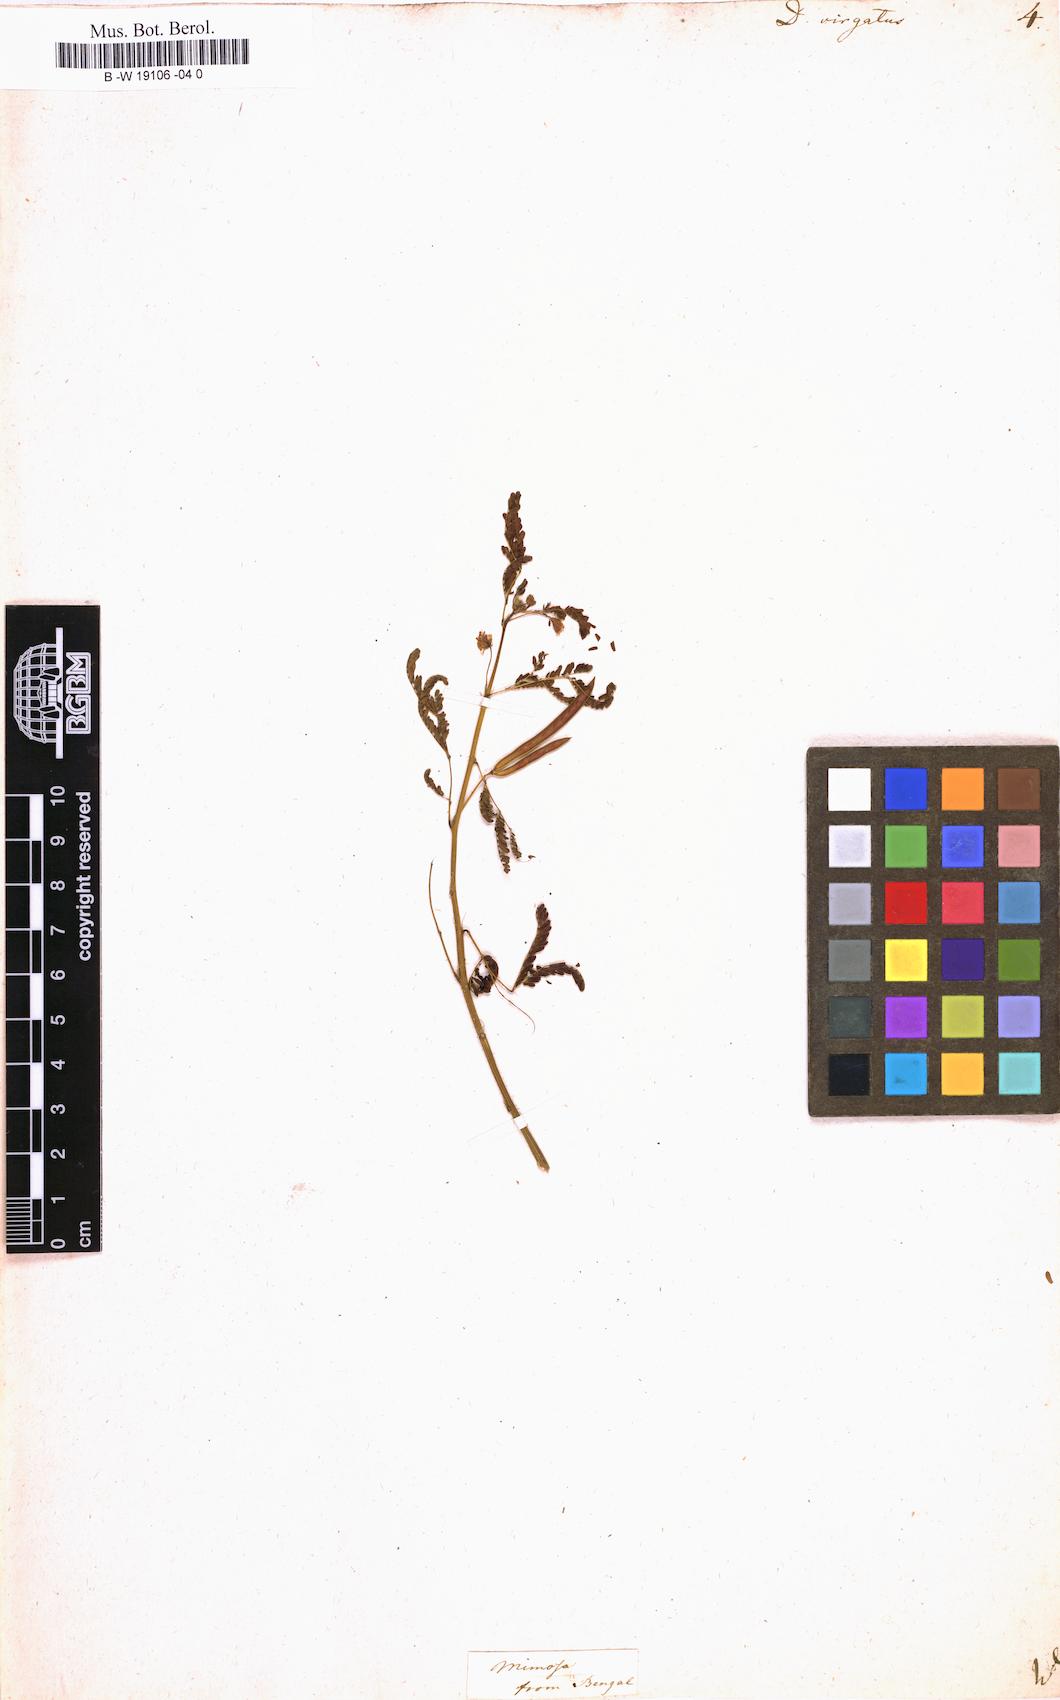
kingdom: Plantae
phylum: Tracheophyta
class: Magnoliopsida
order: Fabales
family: Fabaceae
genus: Desmanthus
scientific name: Desmanthus virgatus
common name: Wild tantan
